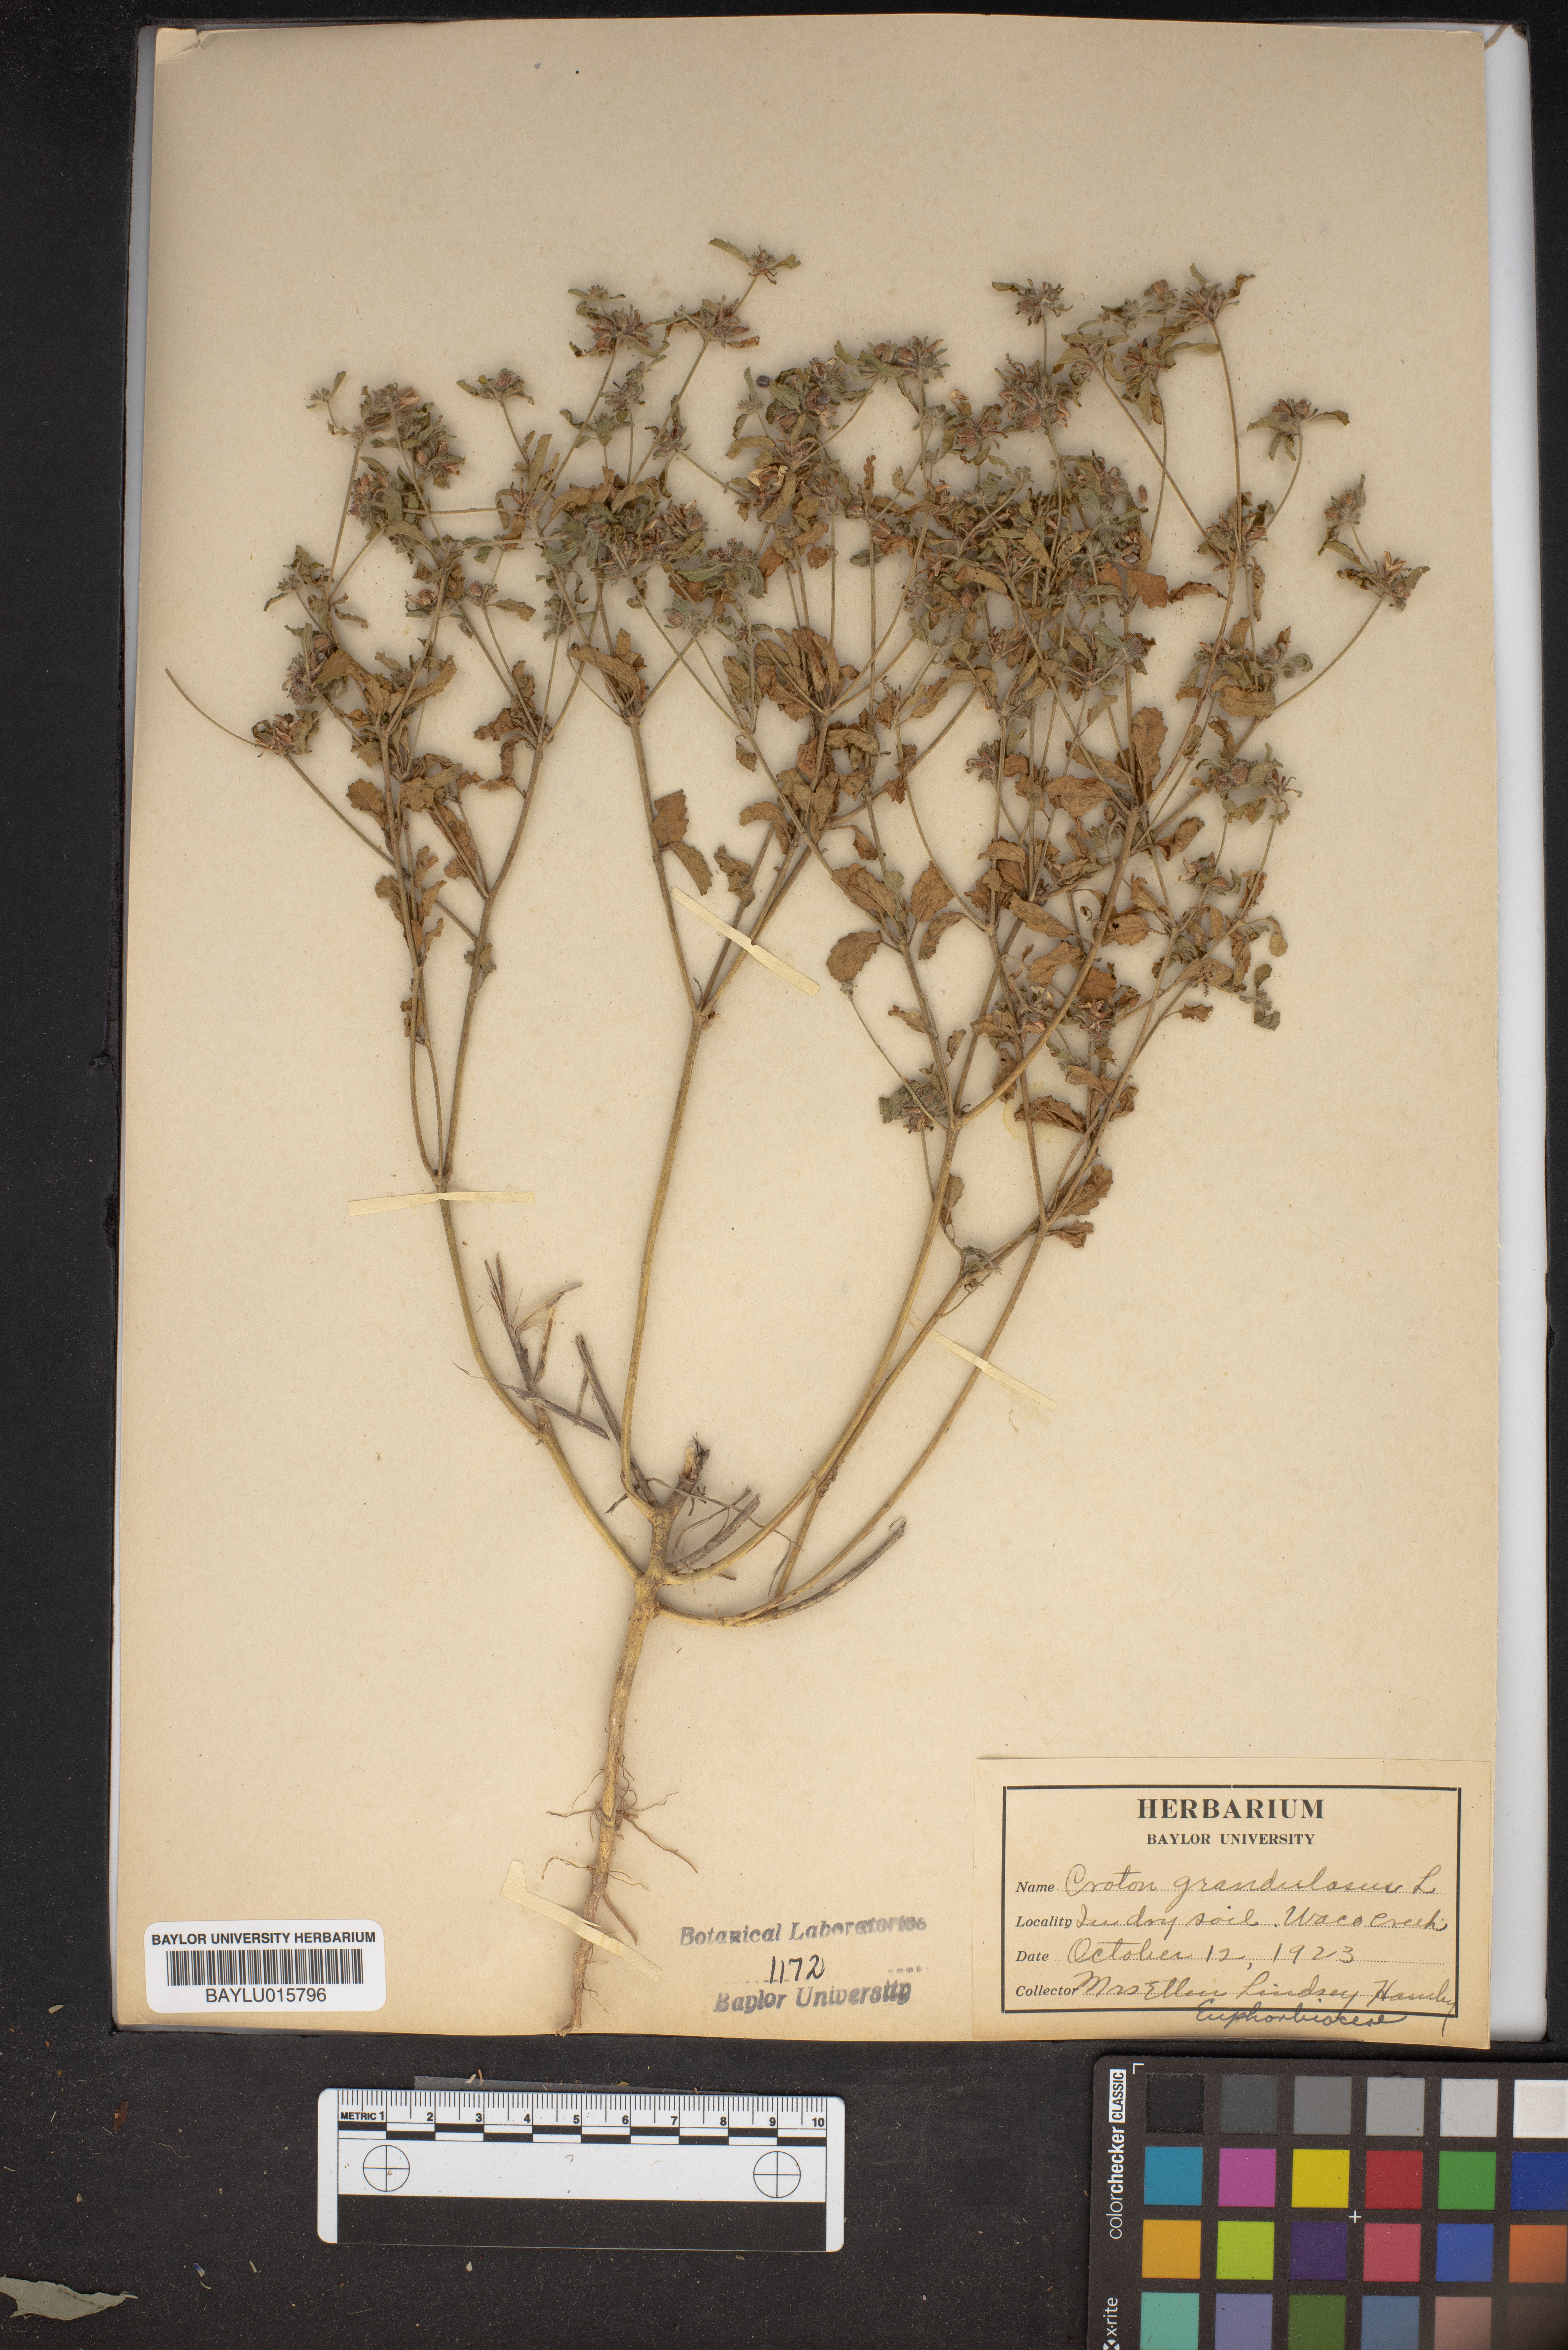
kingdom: Plantae
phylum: Tracheophyta
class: Magnoliopsida
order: Malpighiales
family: Euphorbiaceae
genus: Croton
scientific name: Croton grandulosus
